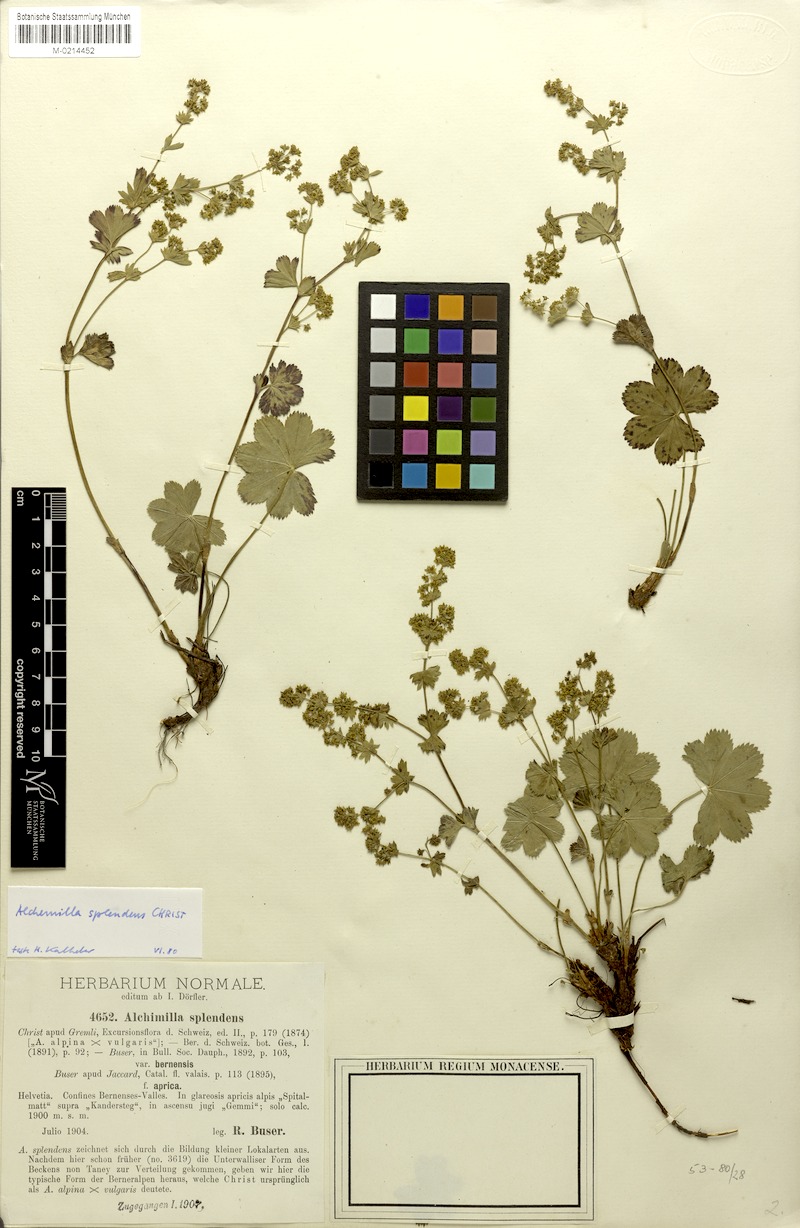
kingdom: Plantae
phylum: Tracheophyta
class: Magnoliopsida
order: Rosales
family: Rosaceae
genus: Alchemilla
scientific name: Alchemilla splendens
